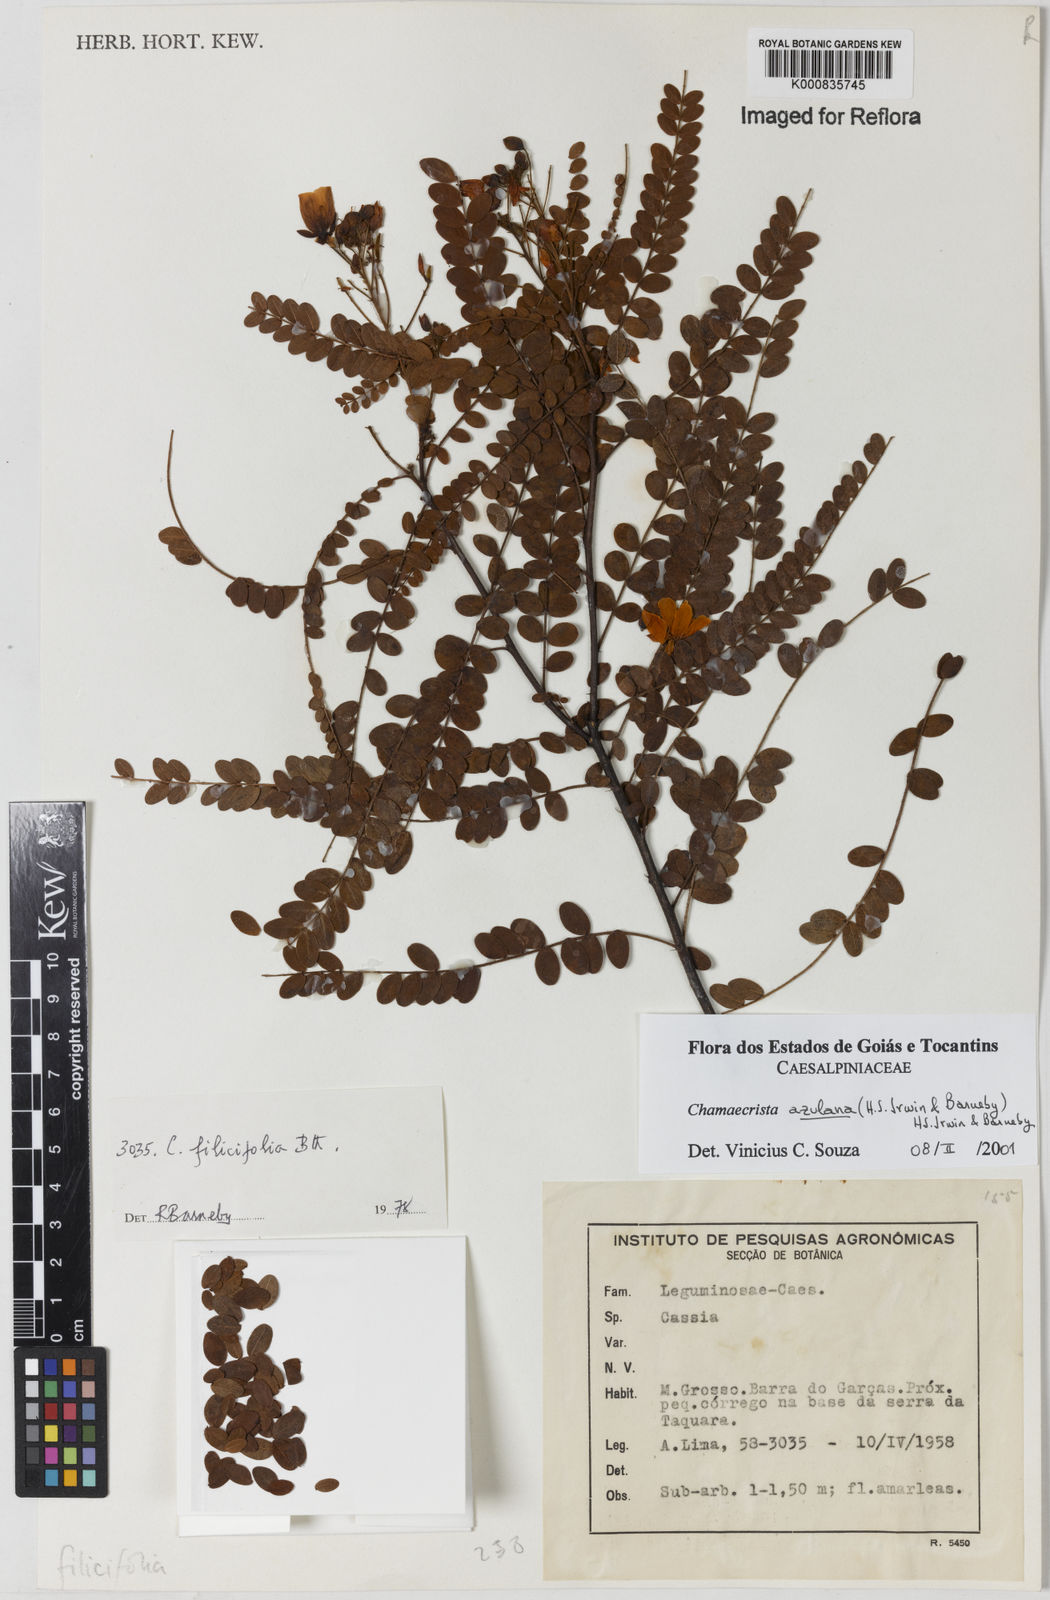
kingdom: Plantae
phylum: Tracheophyta
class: Magnoliopsida
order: Fabales
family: Fabaceae
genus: Chamaecrista
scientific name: Chamaecrista azulana
